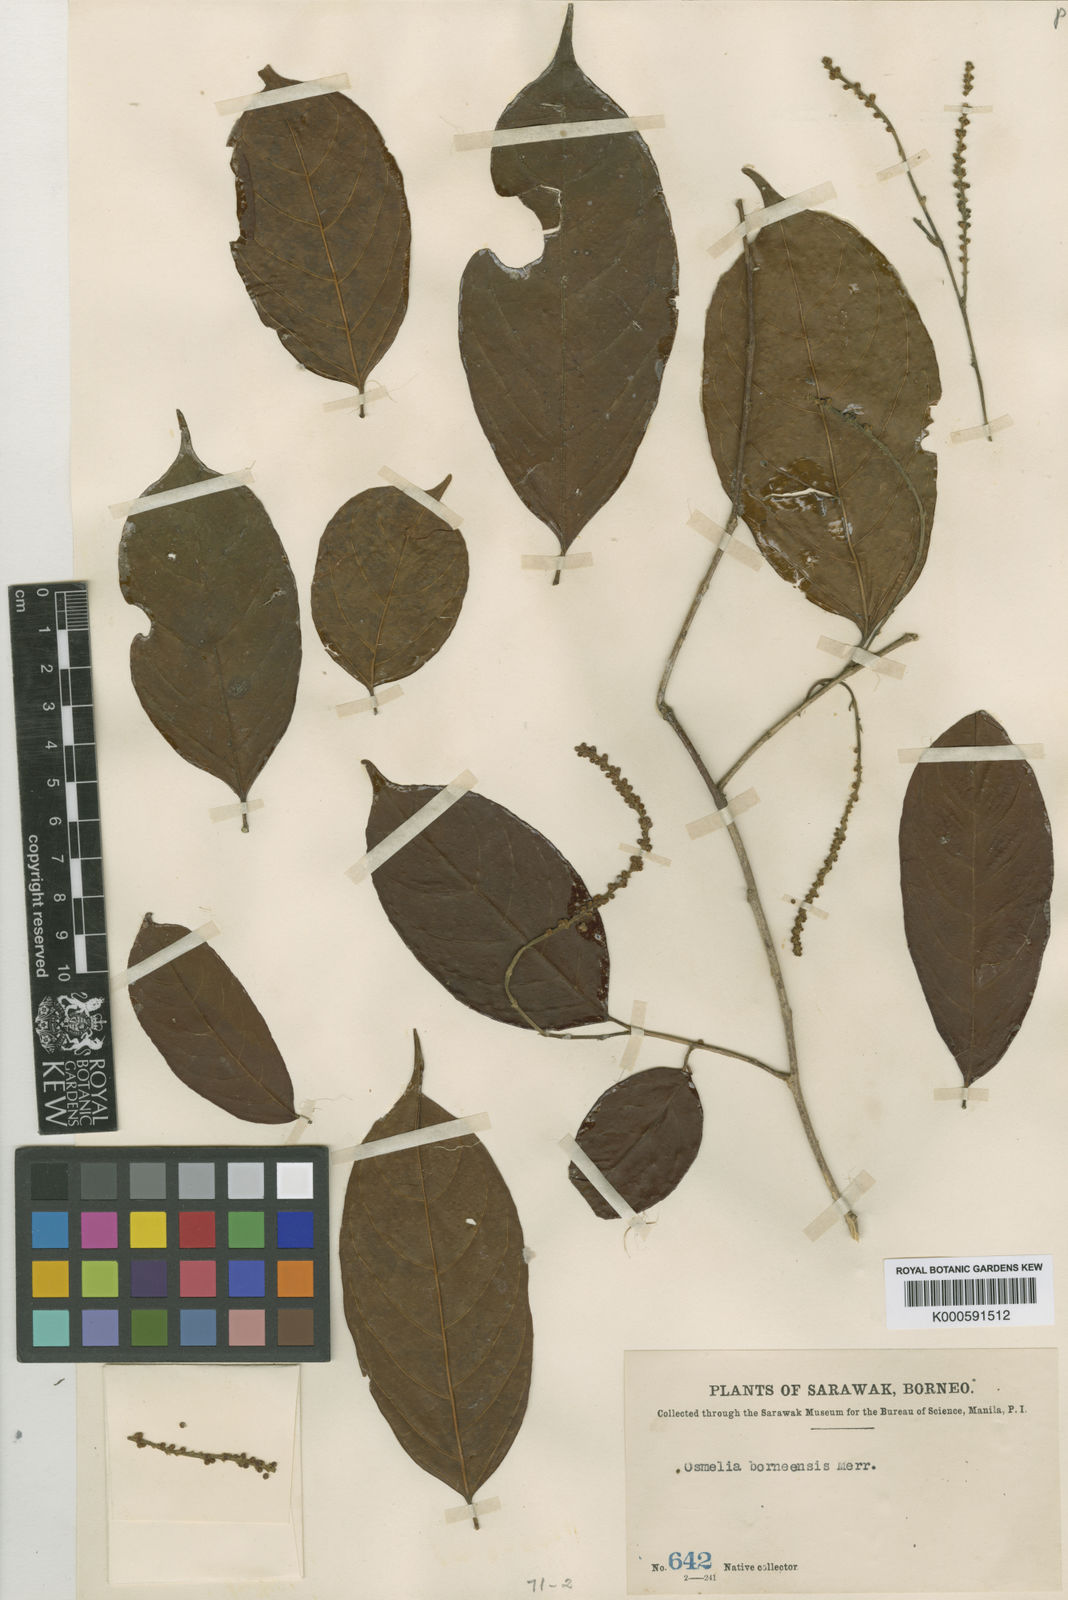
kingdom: Plantae
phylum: Tracheophyta
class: Magnoliopsida
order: Malpighiales
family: Salicaceae
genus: Osmelia
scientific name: Osmelia philippina
